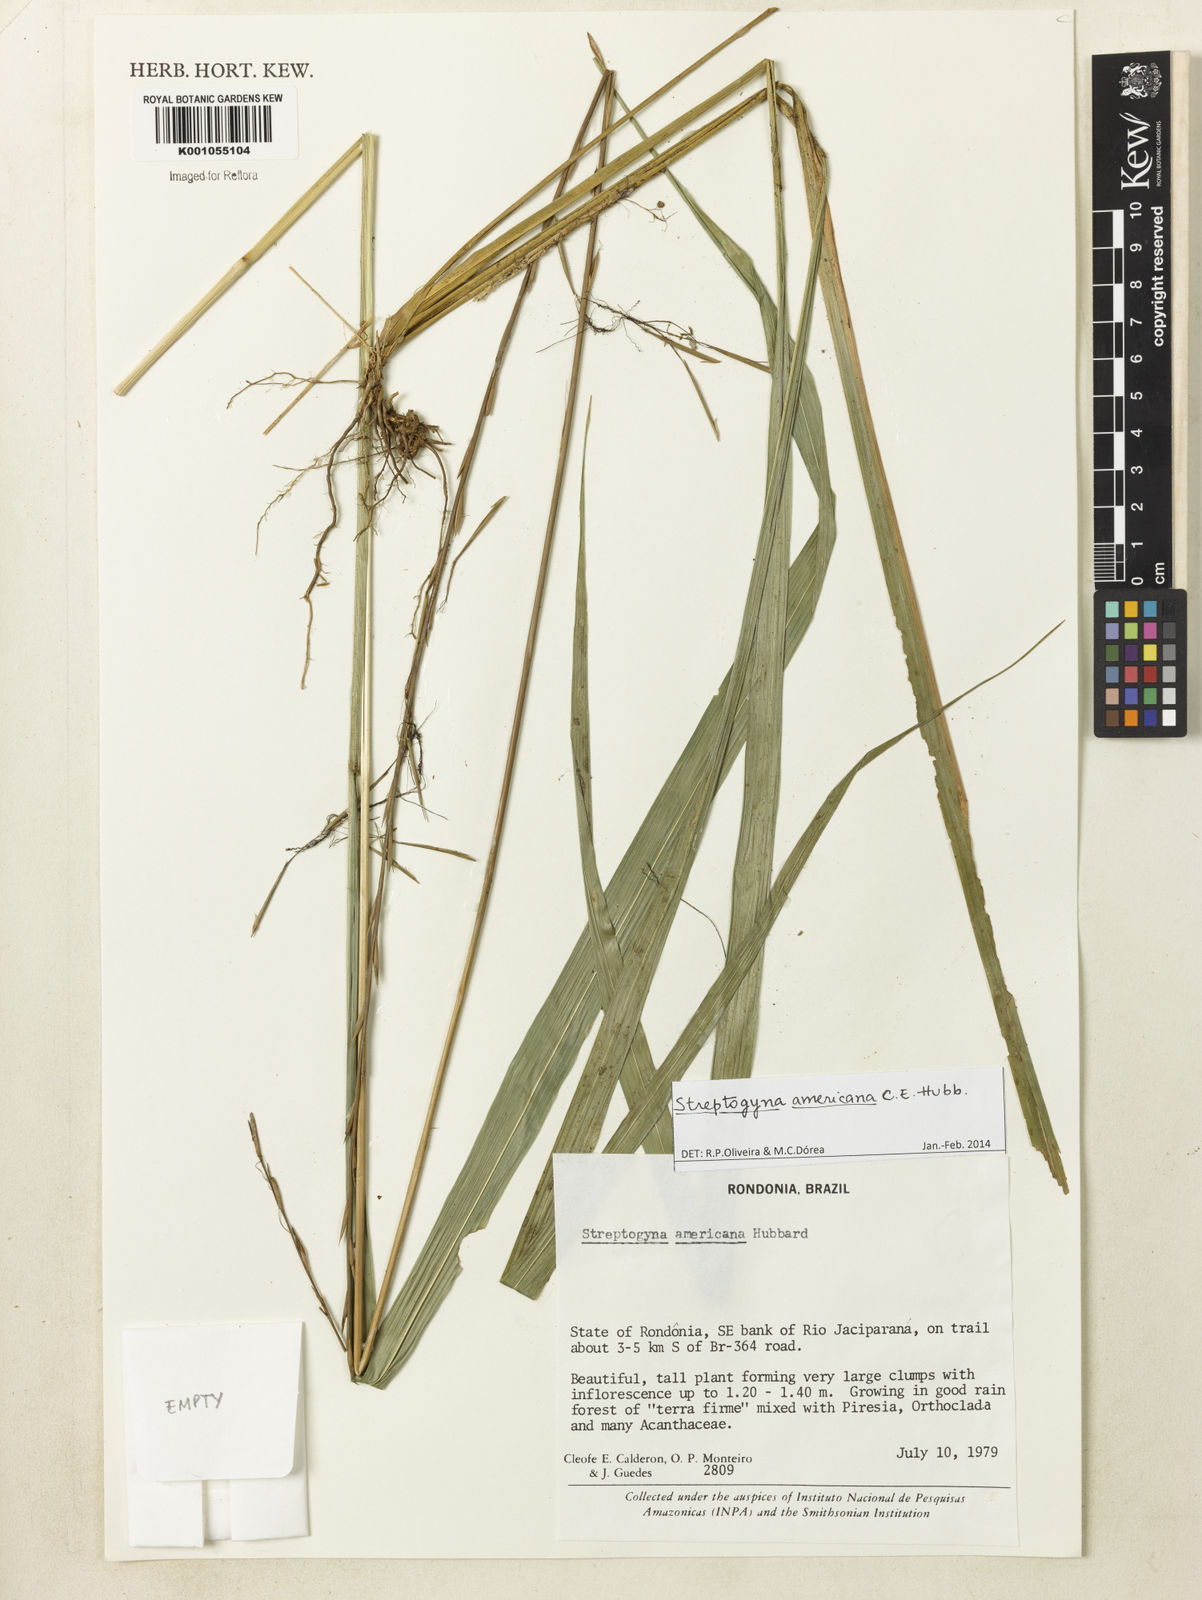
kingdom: Plantae
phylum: Tracheophyta
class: Liliopsida
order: Poales
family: Poaceae
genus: Streptogyna
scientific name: Streptogyna americana
